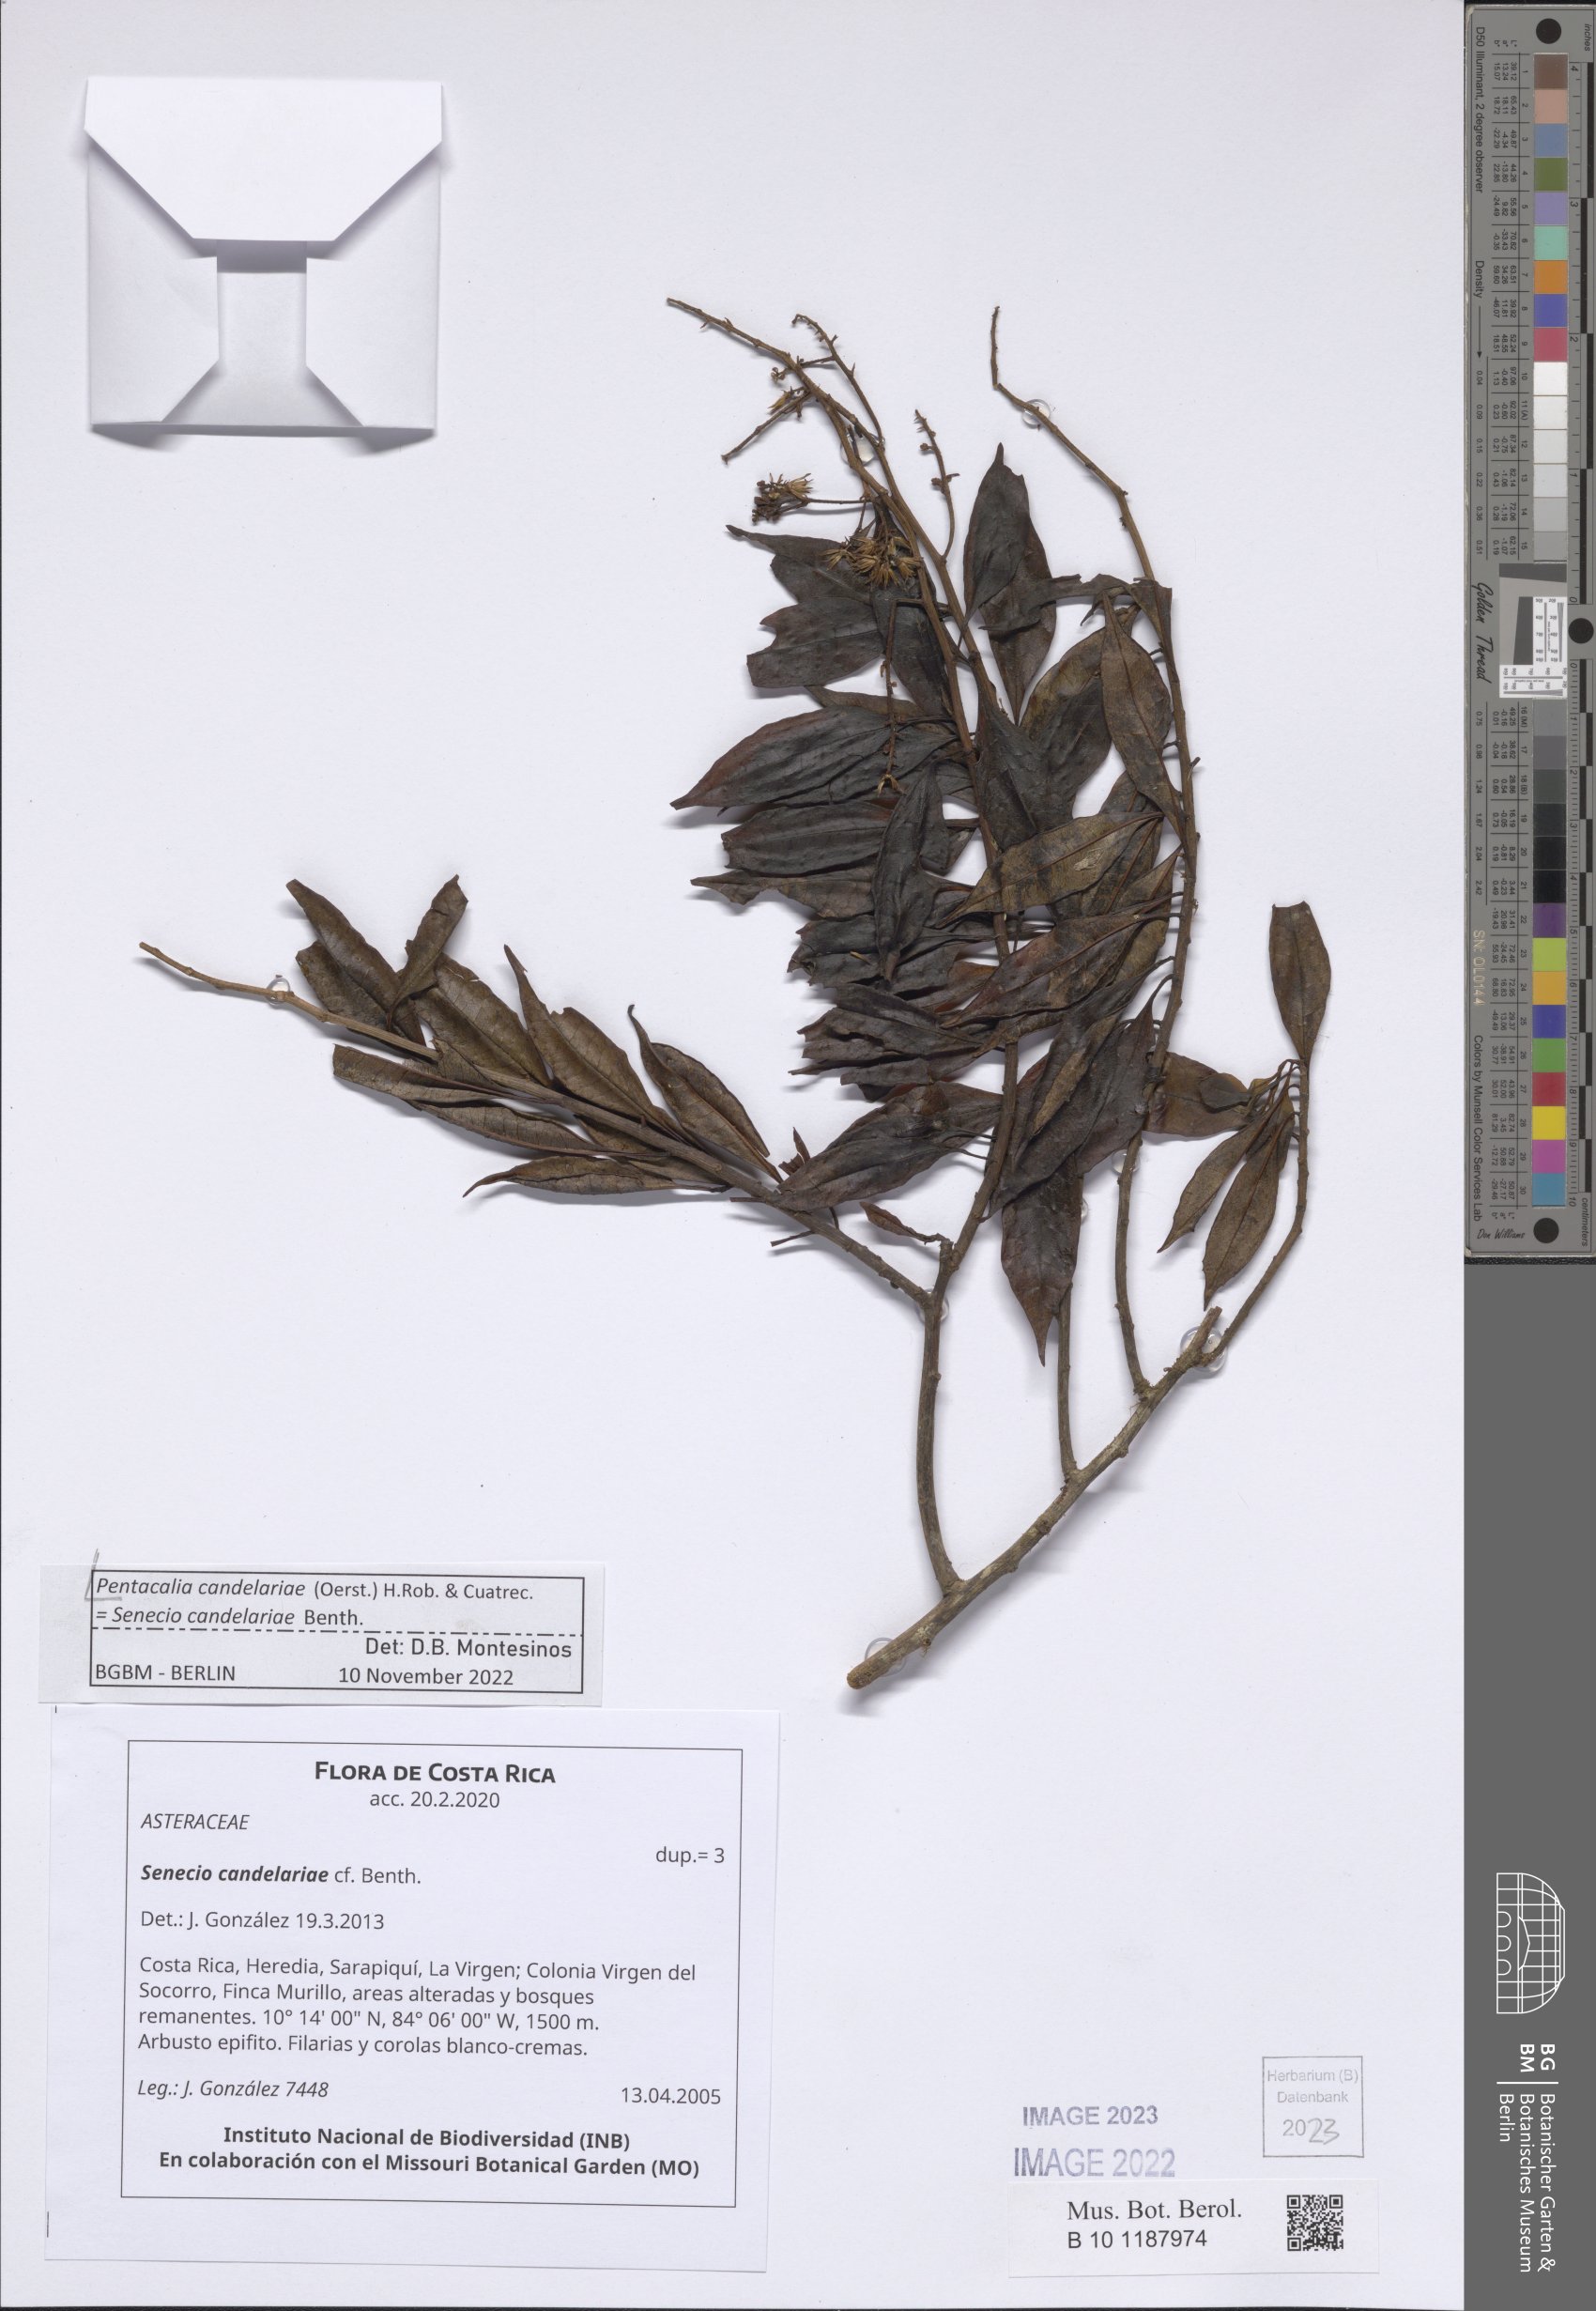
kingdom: Plantae
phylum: Tracheophyta
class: Magnoliopsida
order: Asterales
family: Asteraceae
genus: Pentacalia
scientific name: Pentacalia candelariae
